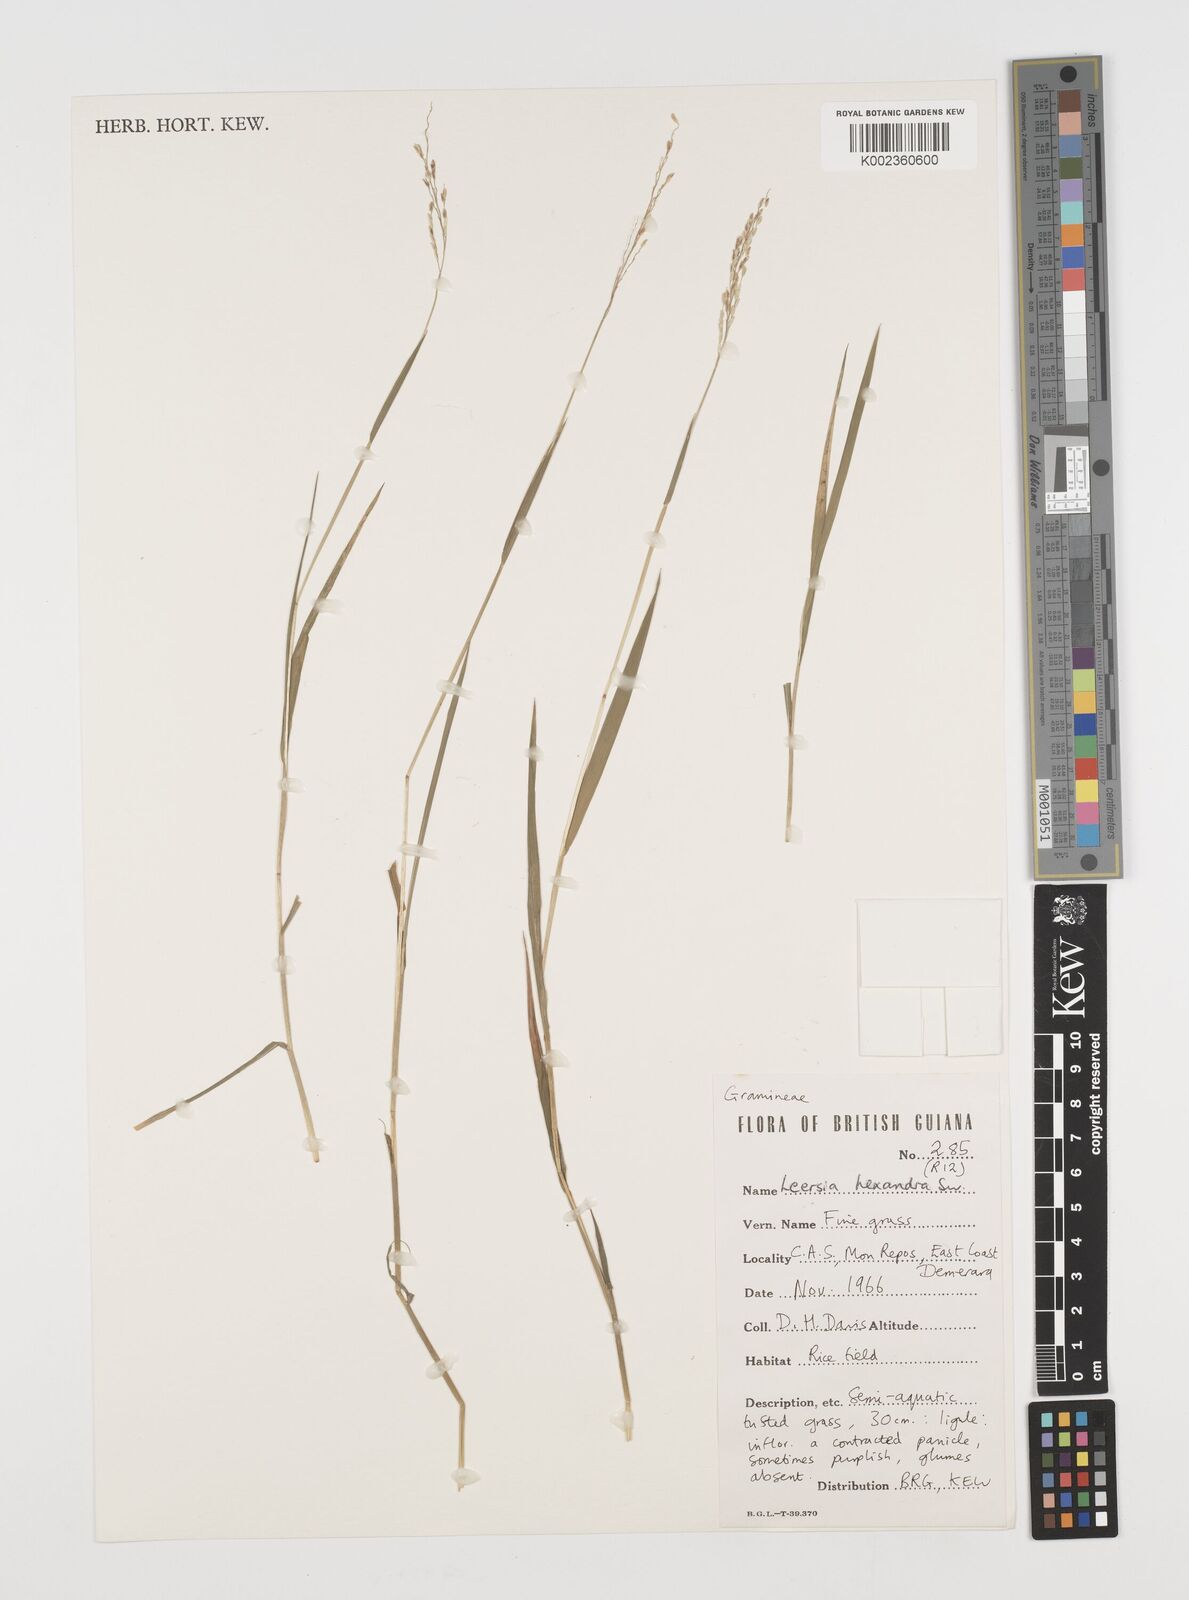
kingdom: Plantae
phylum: Tracheophyta
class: Liliopsida
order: Poales
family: Poaceae
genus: Leersia
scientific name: Leersia hexandra
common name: Southern cut grass
